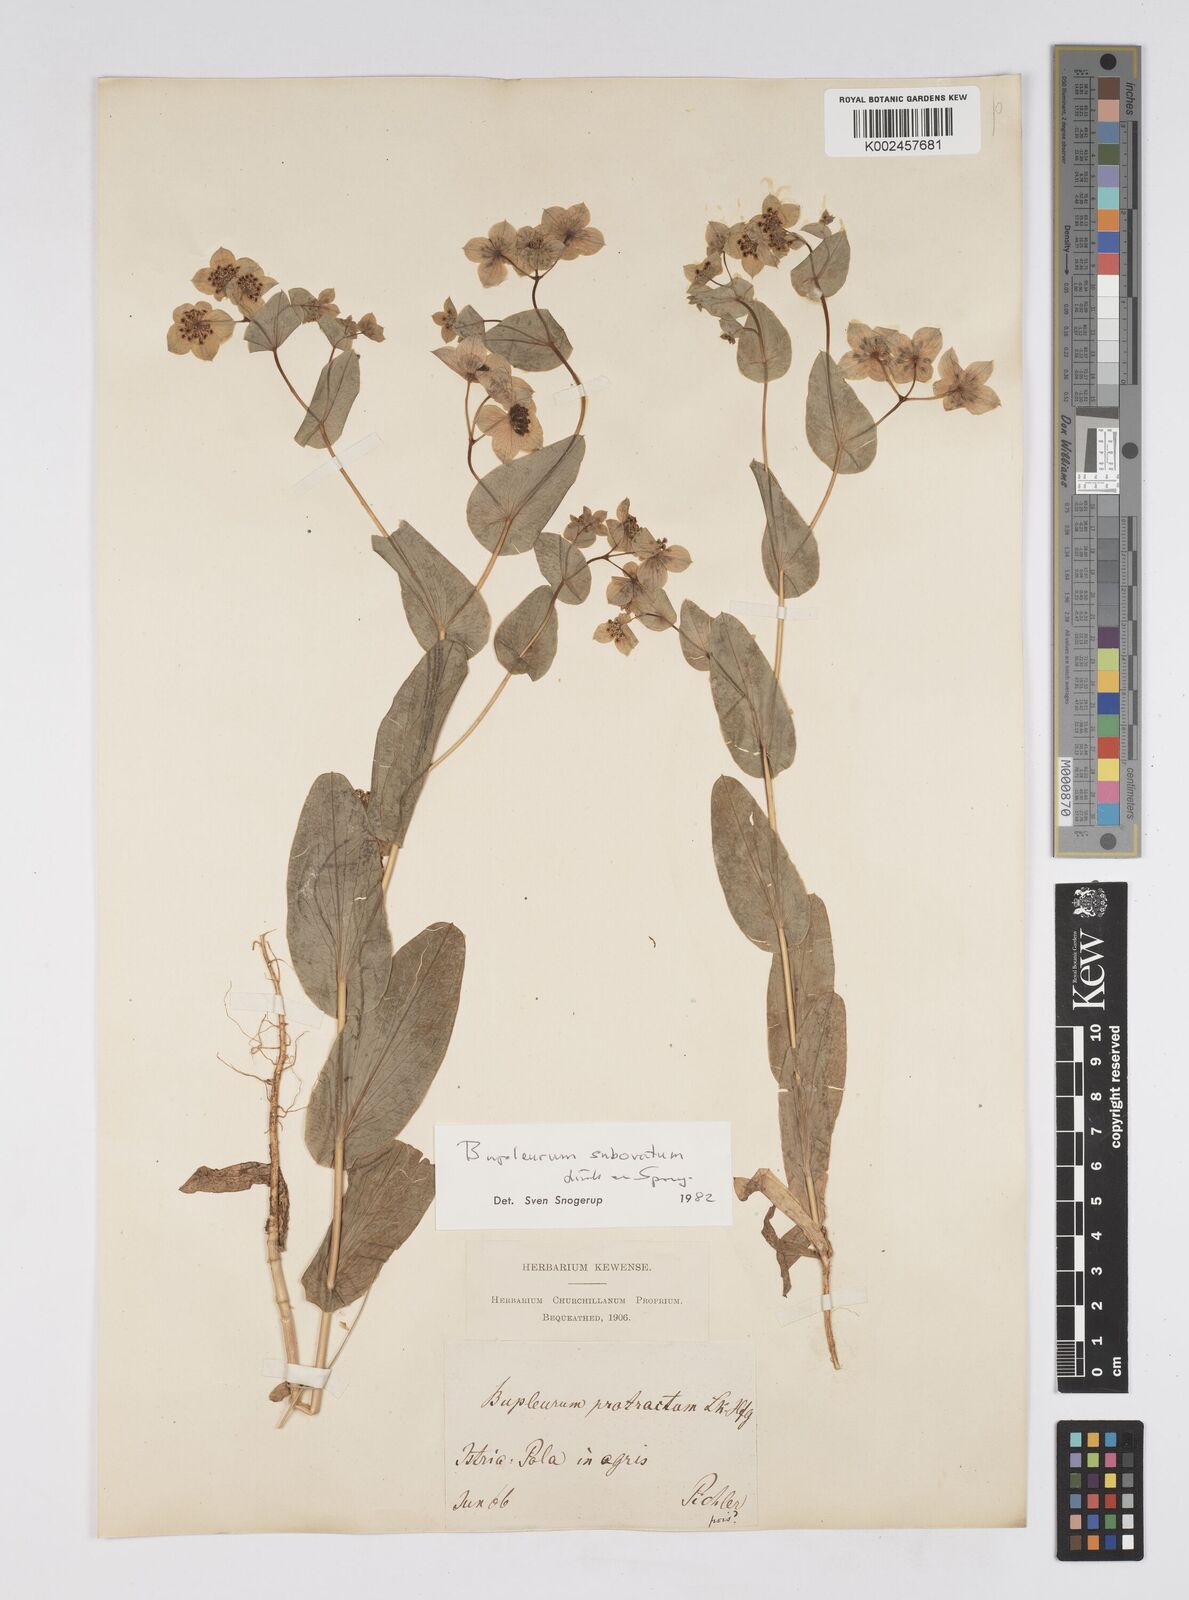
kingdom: Plantae
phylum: Tracheophyta
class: Magnoliopsida
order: Apiales
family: Apiaceae
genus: Bupleurum
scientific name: Bupleurum lancifolium
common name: False thorow-wax
